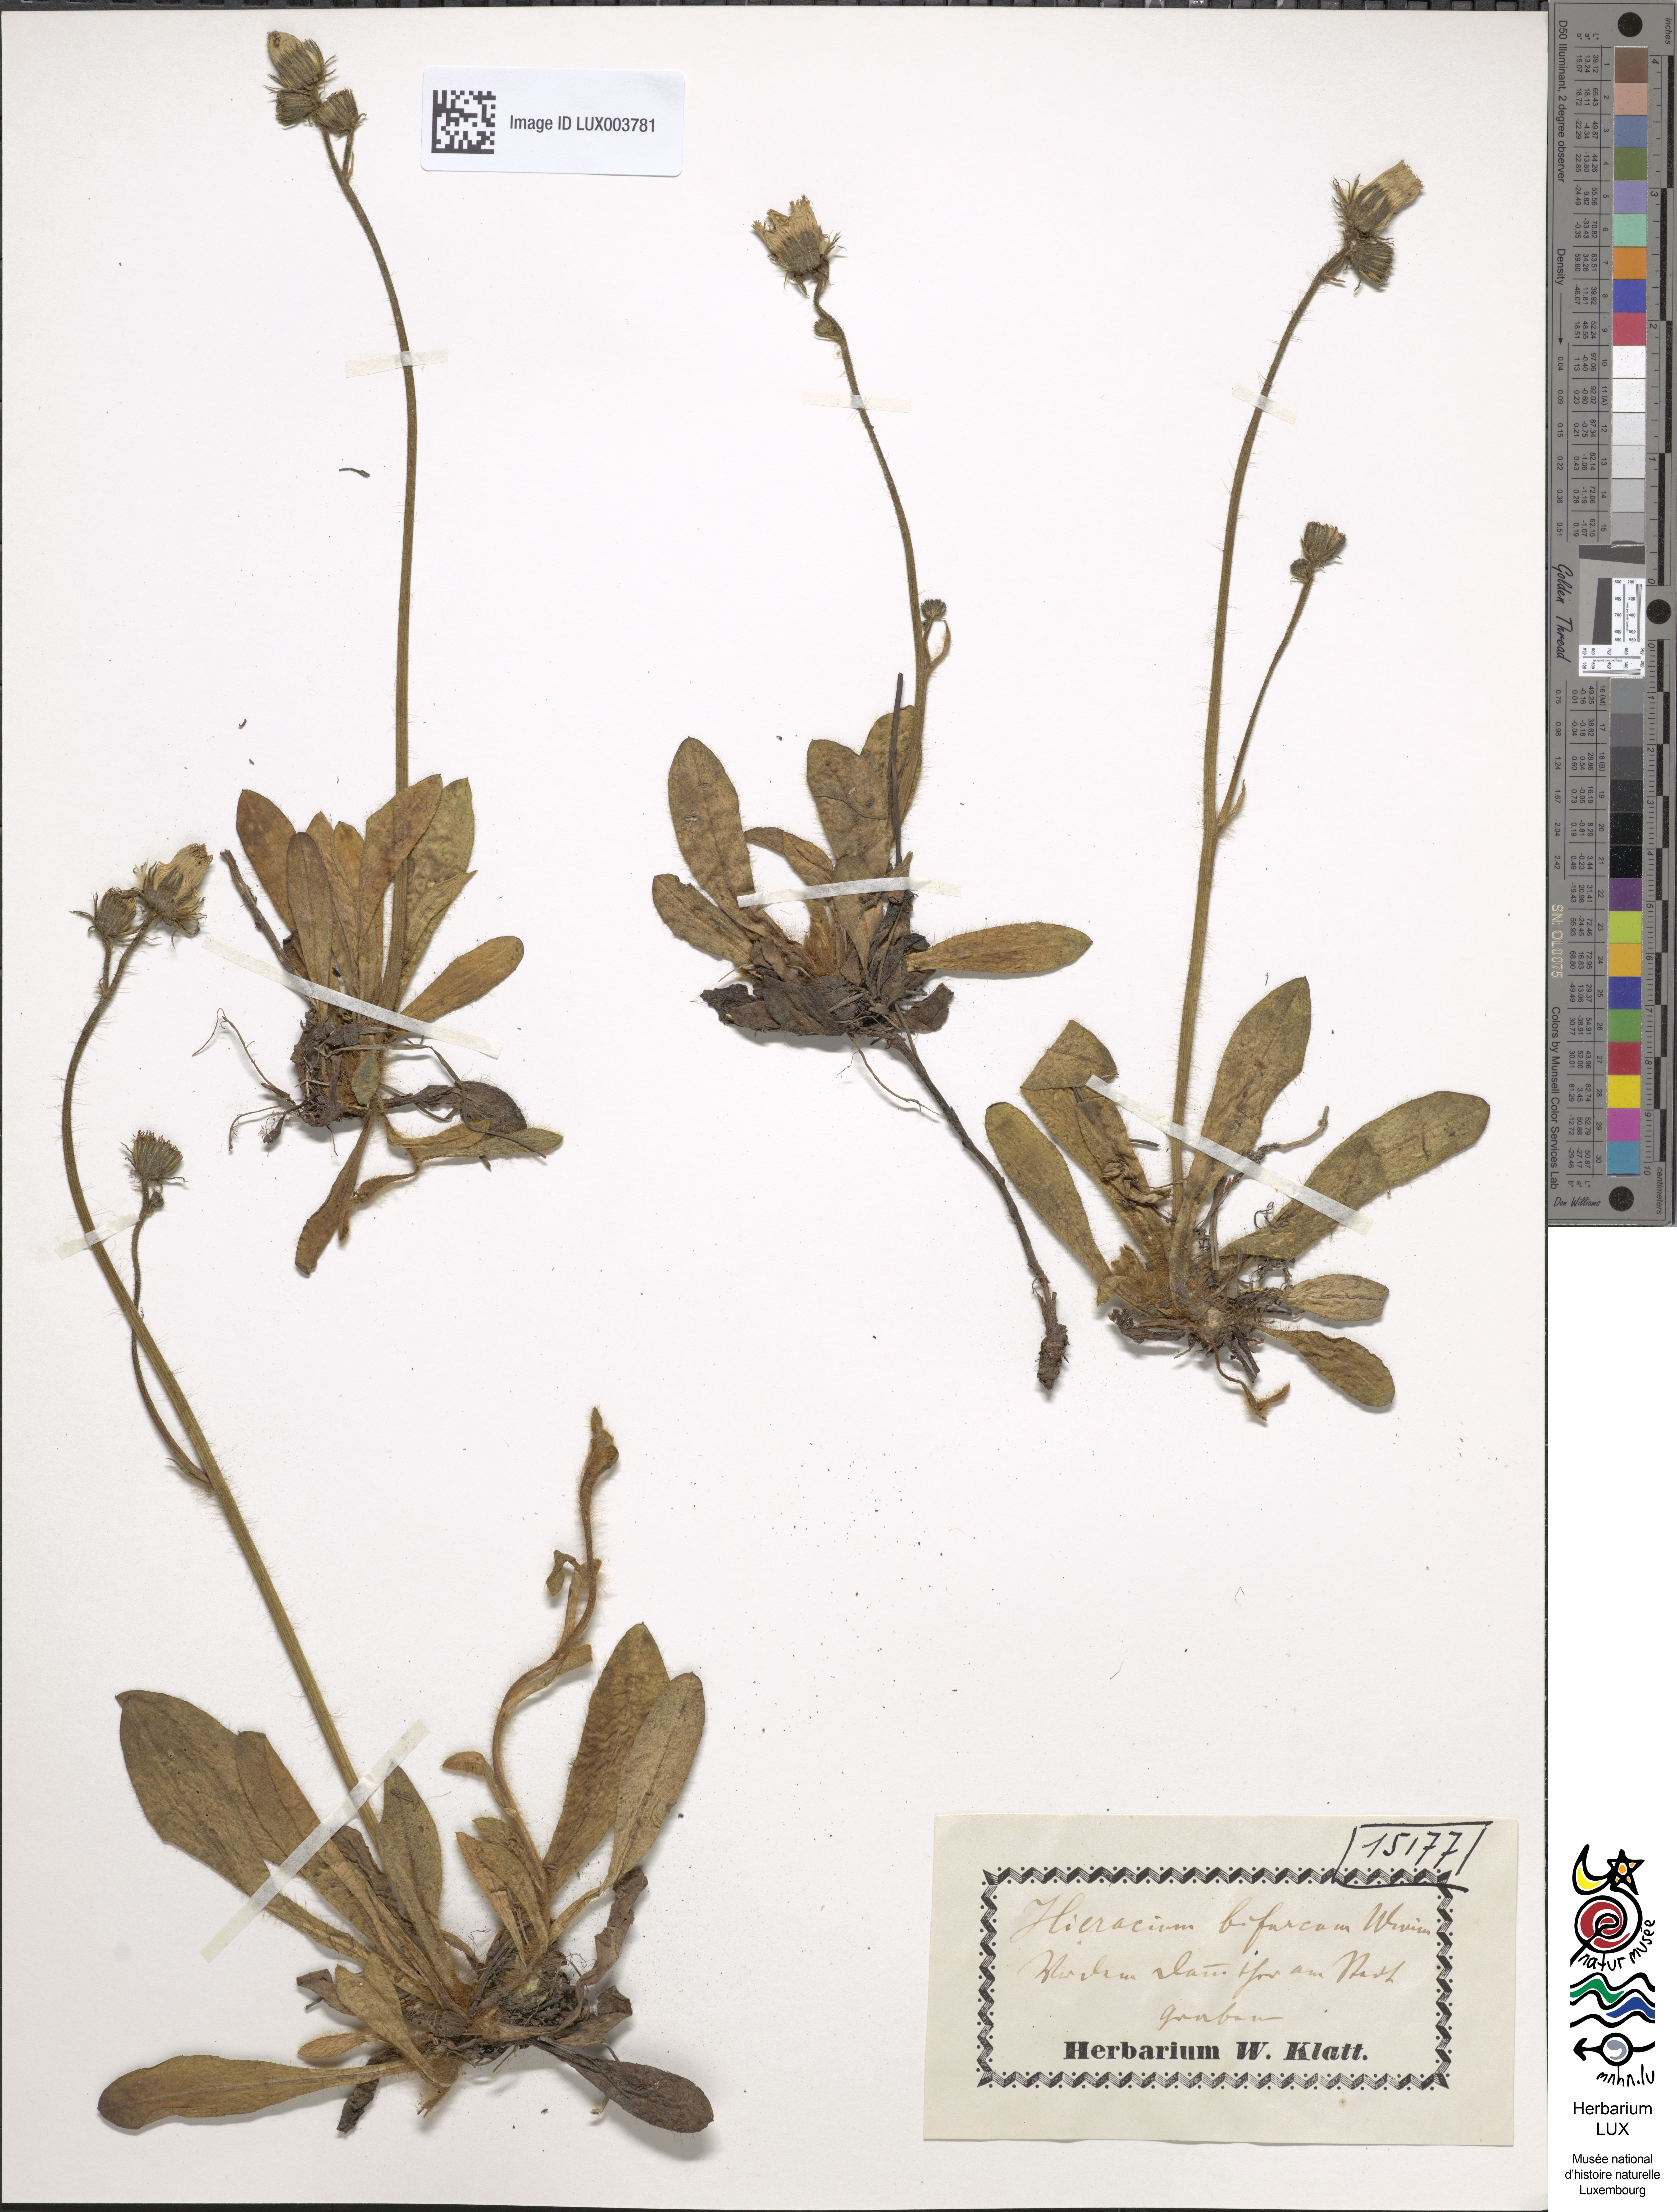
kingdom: Plantae
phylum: Tracheophyta
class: Magnoliopsida
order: Asterales
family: Asteraceae
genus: Pilosella
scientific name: Pilosella bifurca
